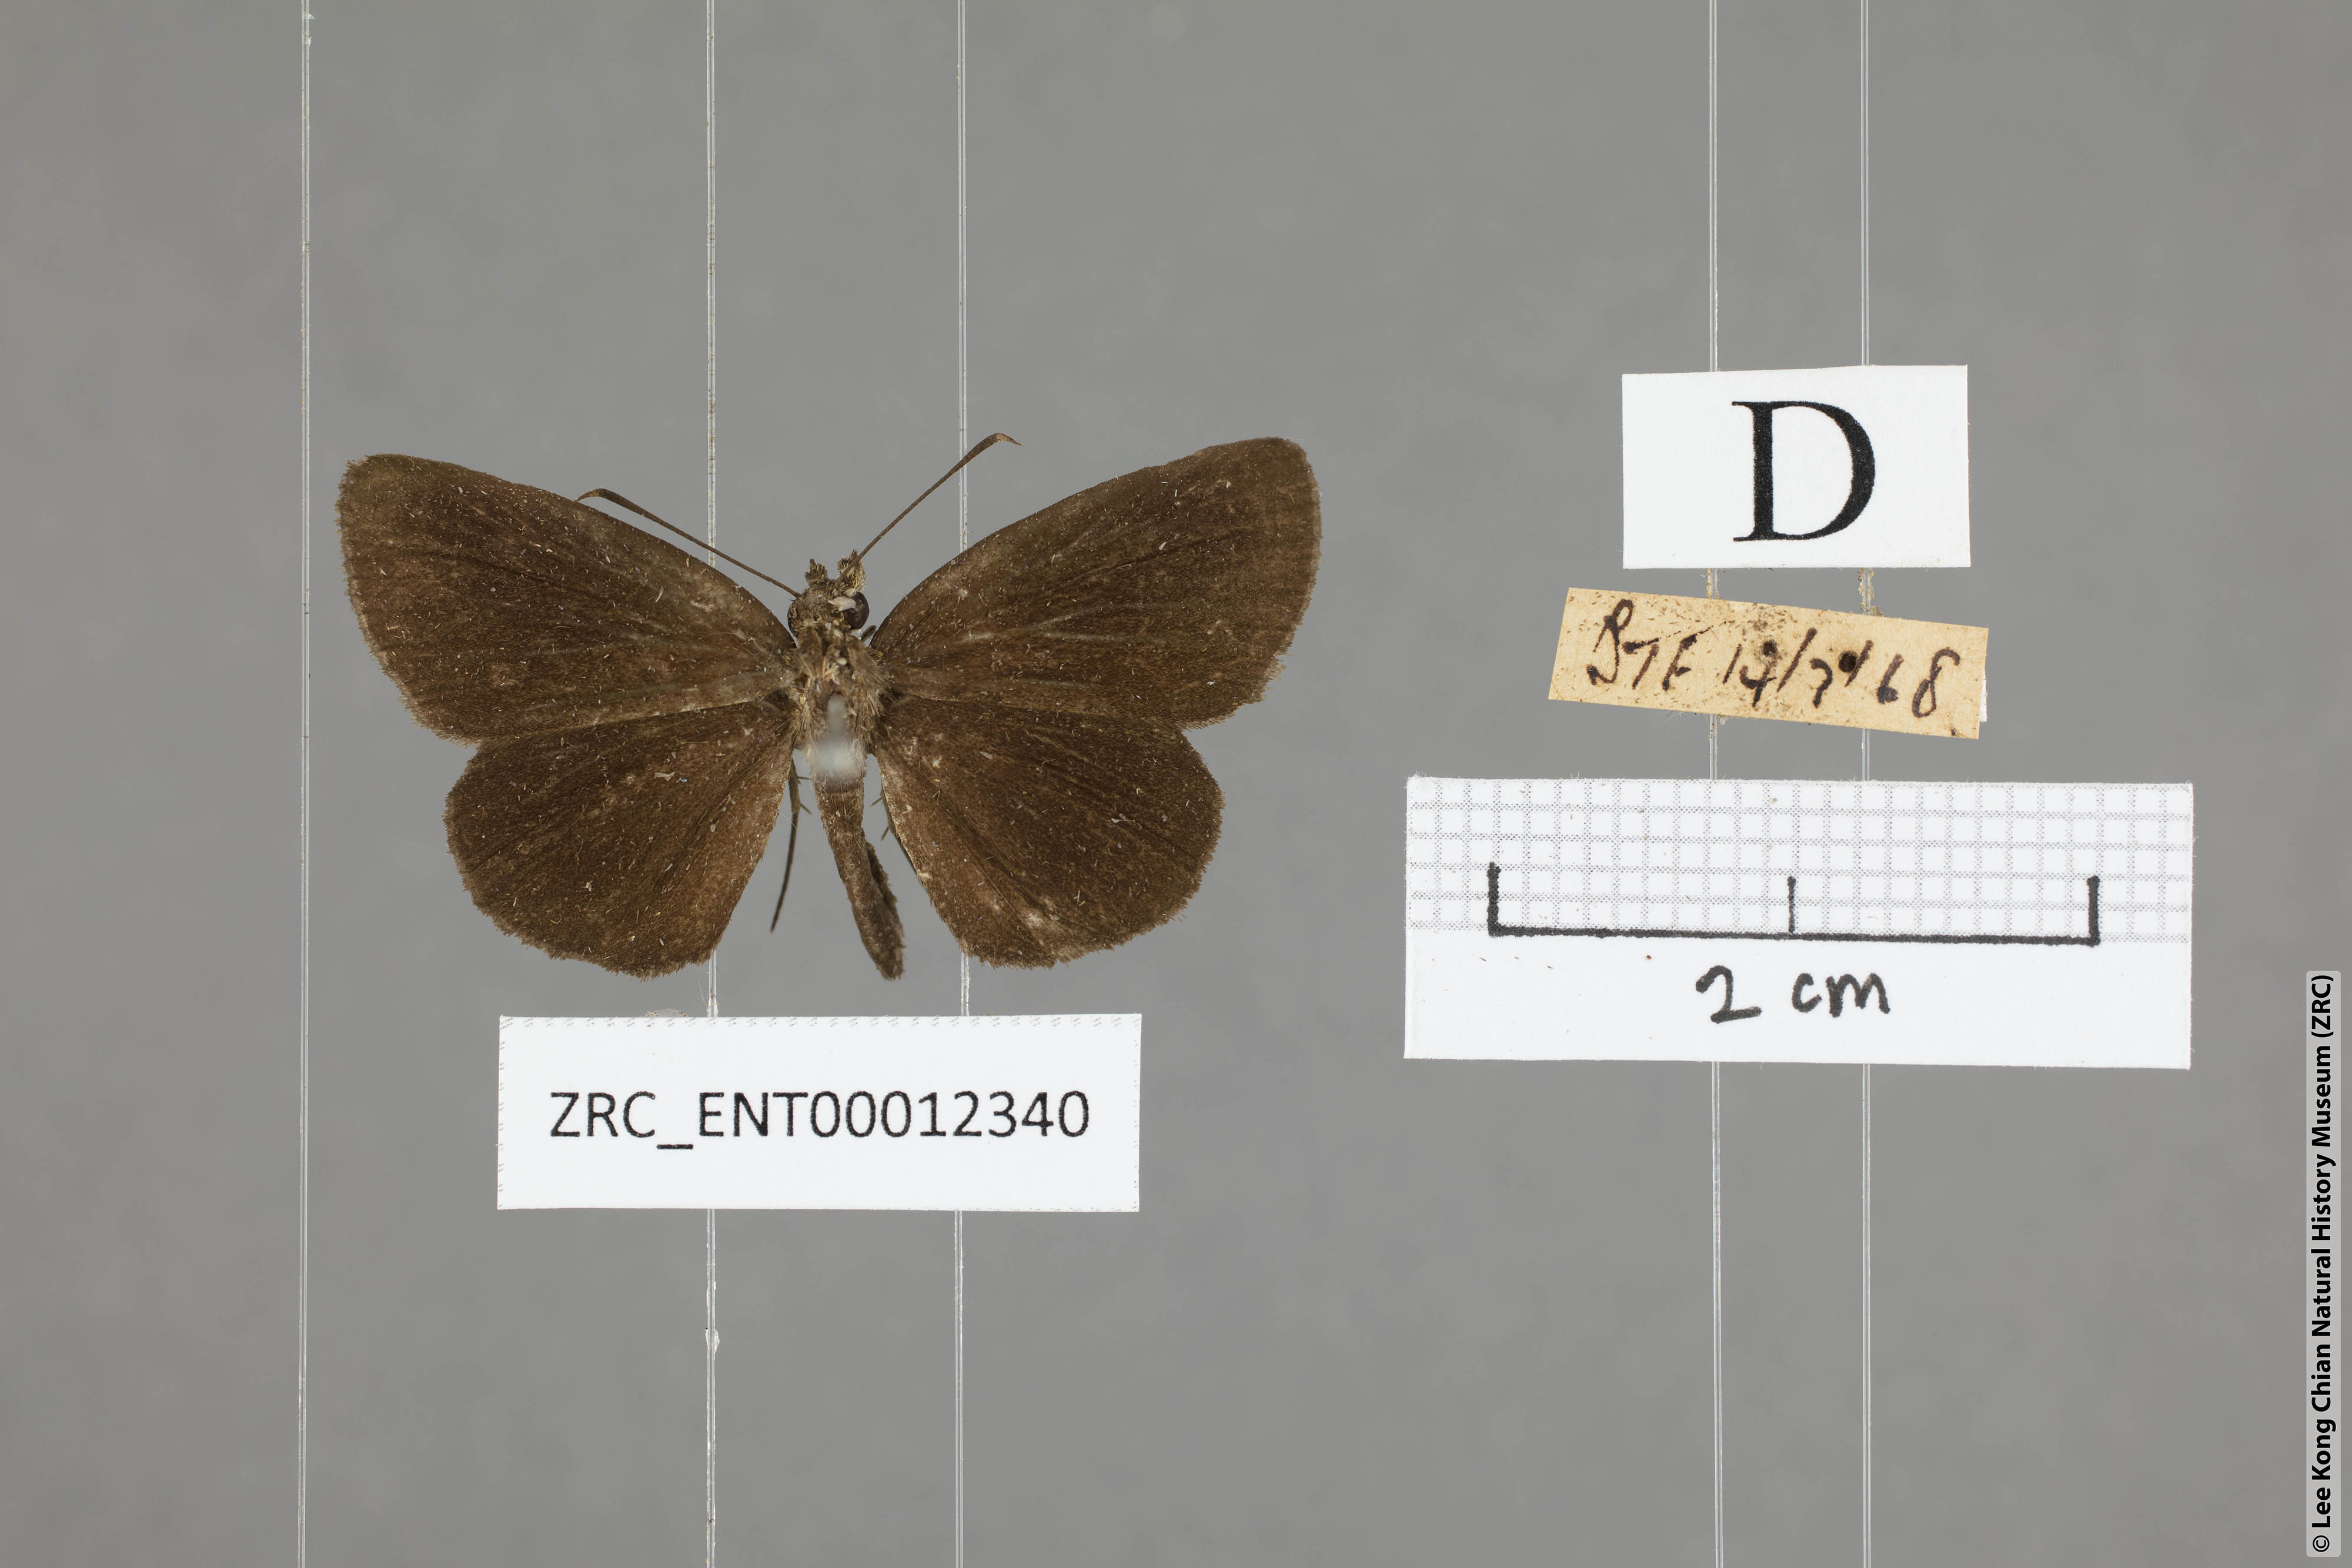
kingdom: Animalia
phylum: Arthropoda
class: Insecta
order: Lepidoptera
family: Hesperiidae
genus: Astictopterus
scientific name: Astictopterus jama
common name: Forest hopper
